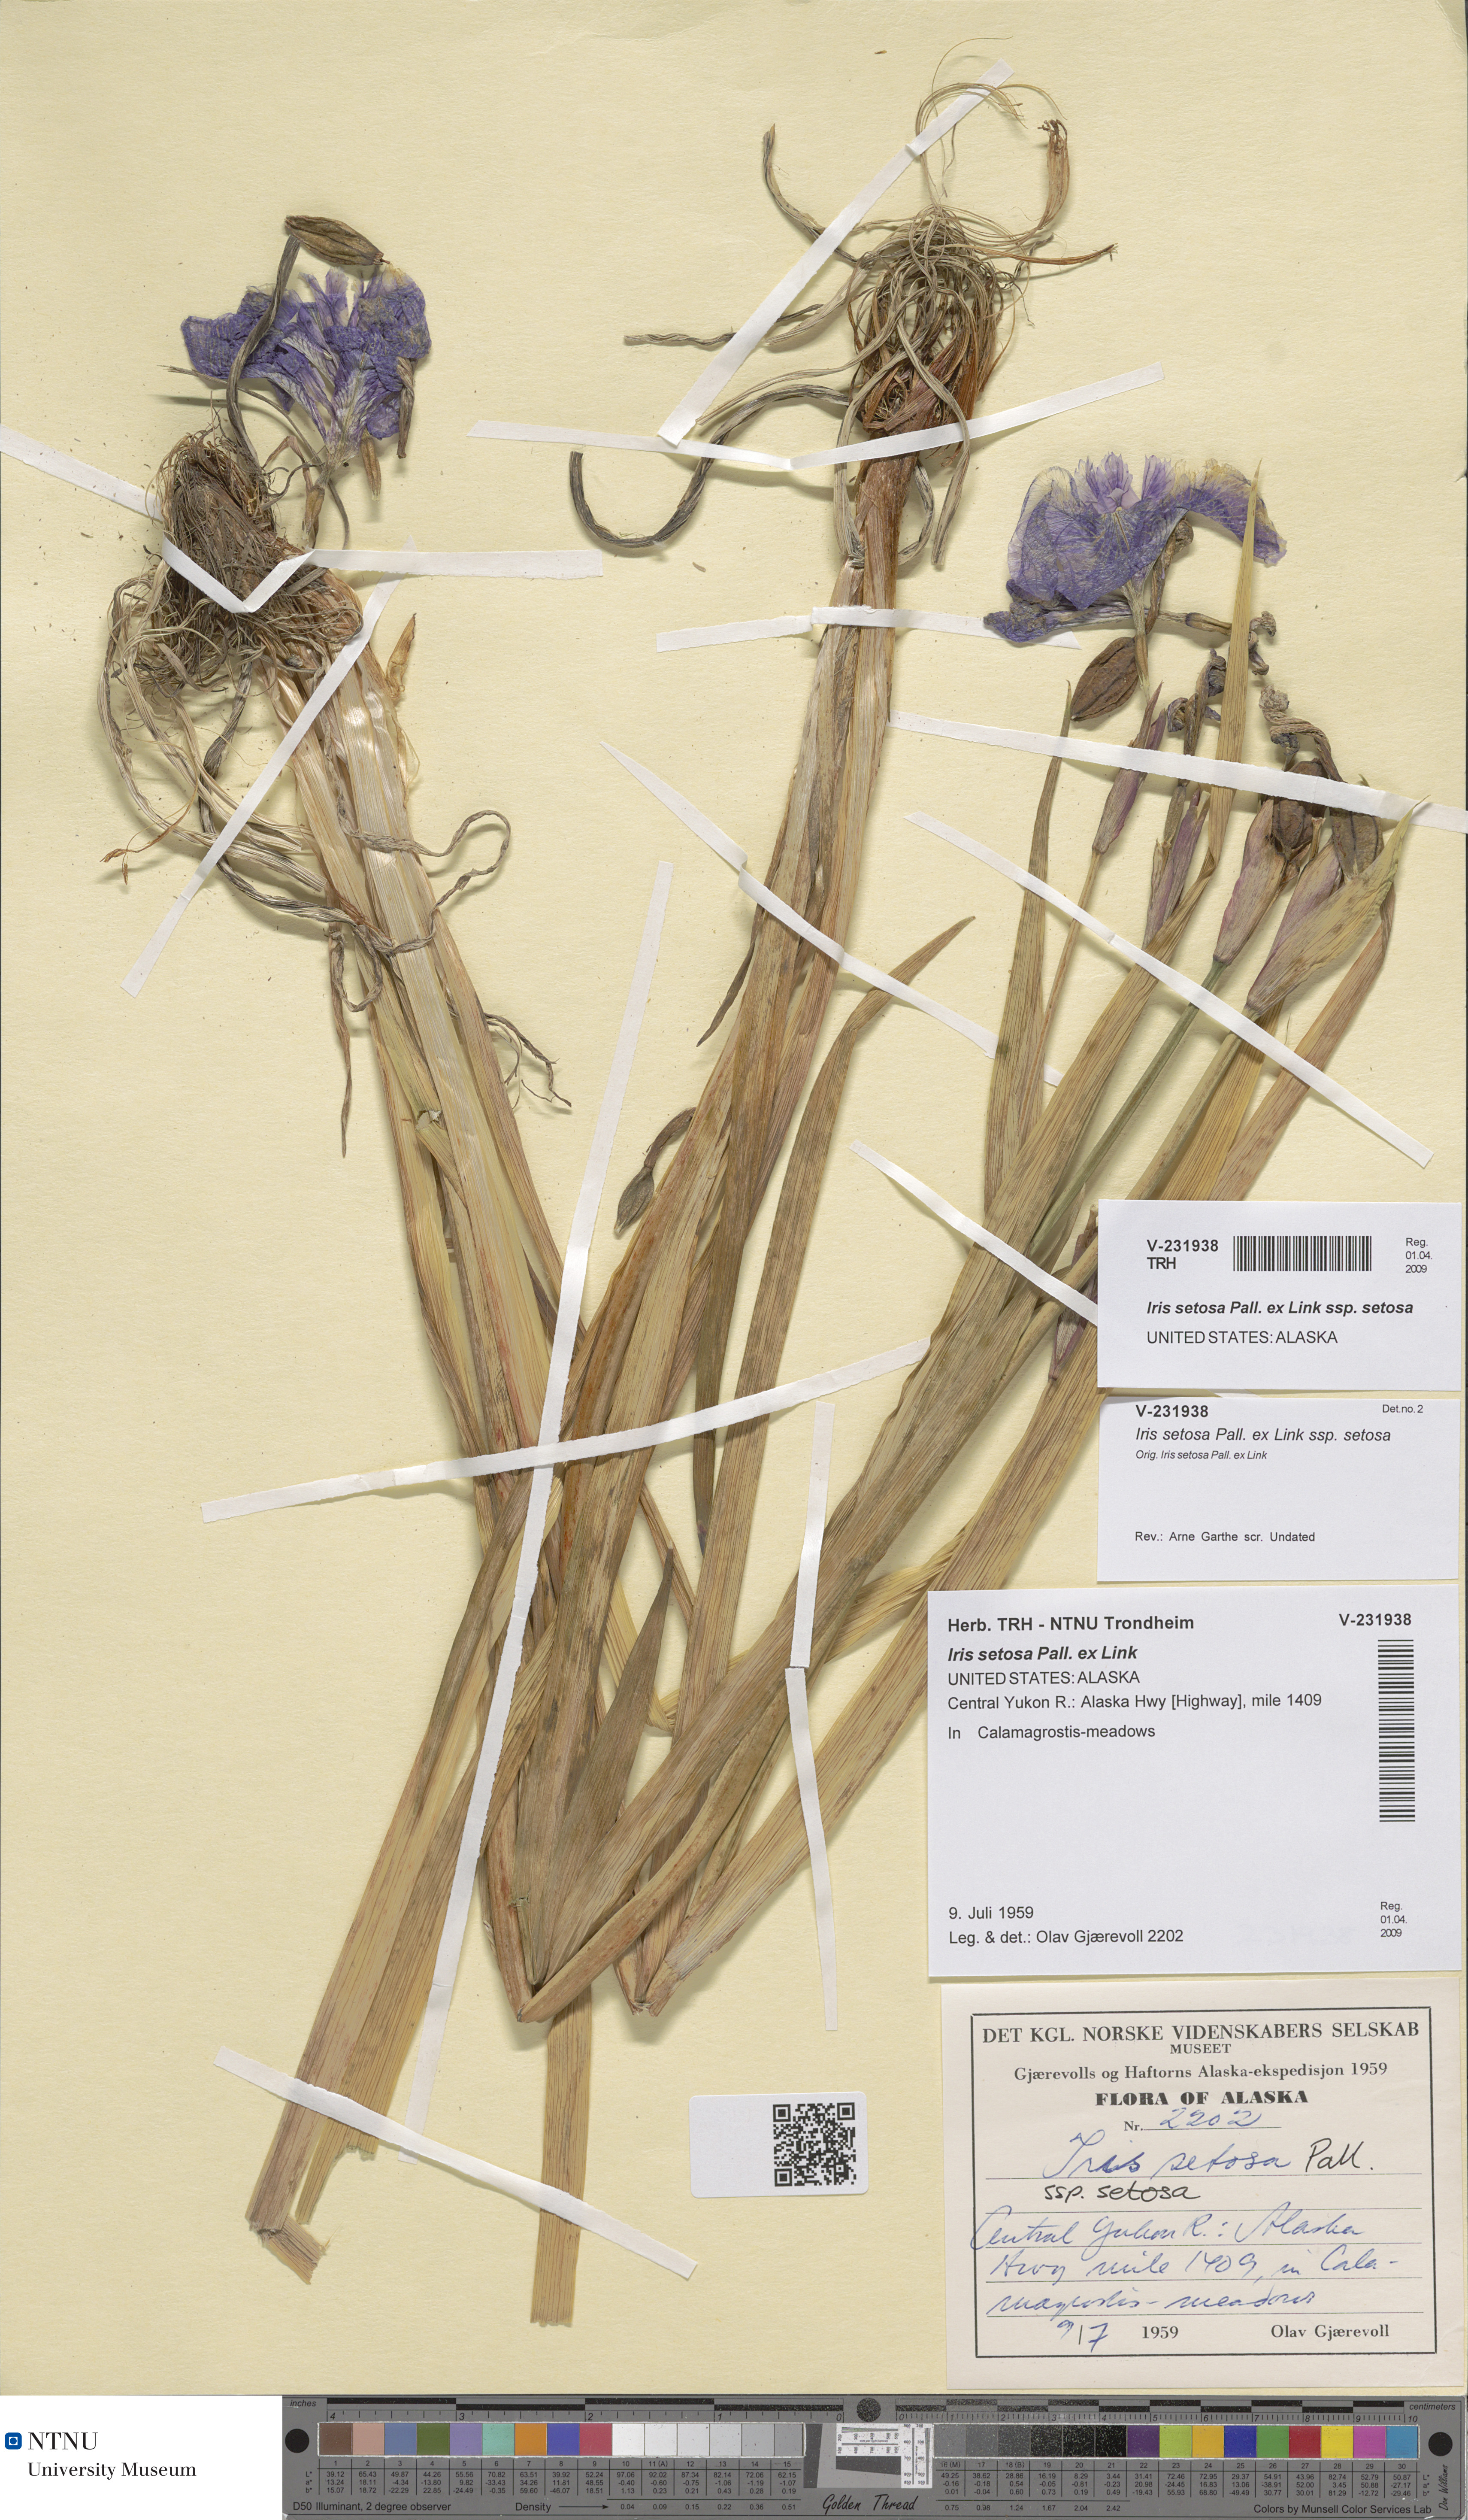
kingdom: Plantae
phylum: Tracheophyta
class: Liliopsida
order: Asparagales
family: Iridaceae
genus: Iris
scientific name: Iris setosa
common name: Arctic blue flag
